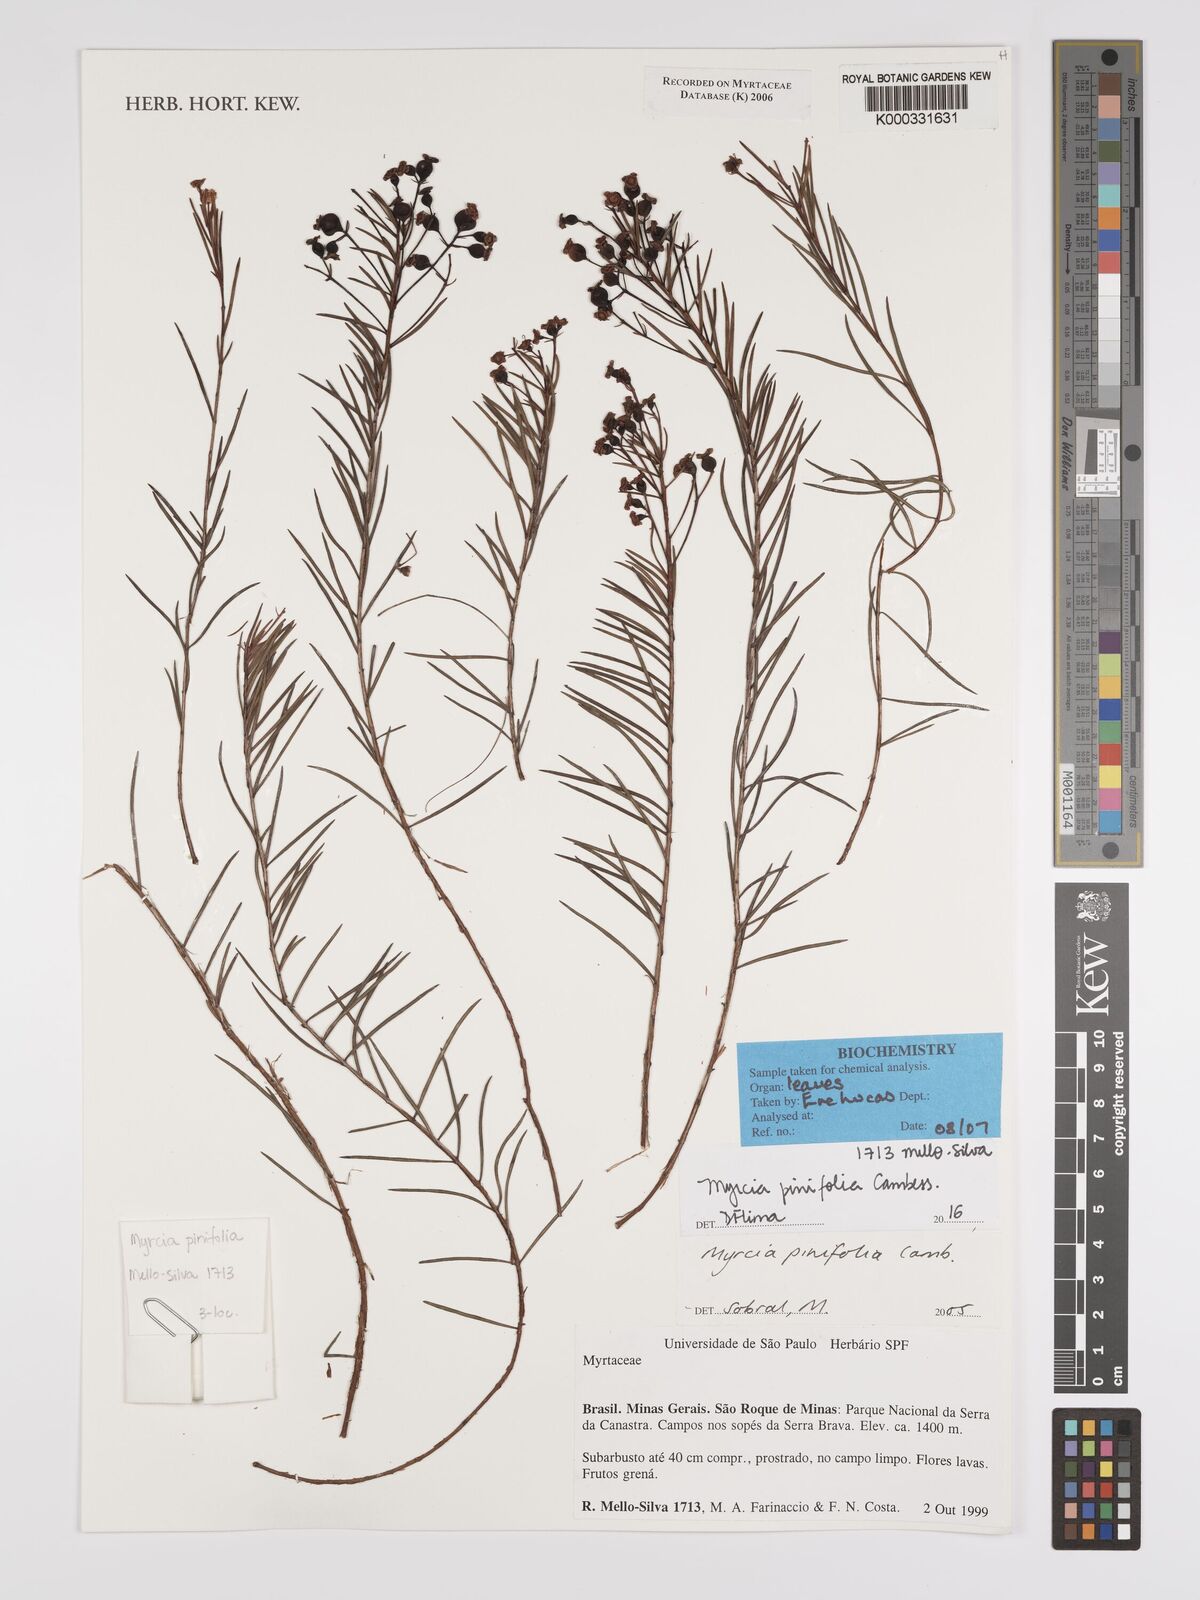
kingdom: Plantae
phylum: Tracheophyta
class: Magnoliopsida
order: Myrtales
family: Myrtaceae
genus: Myrcia
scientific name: Myrcia pinifolia
